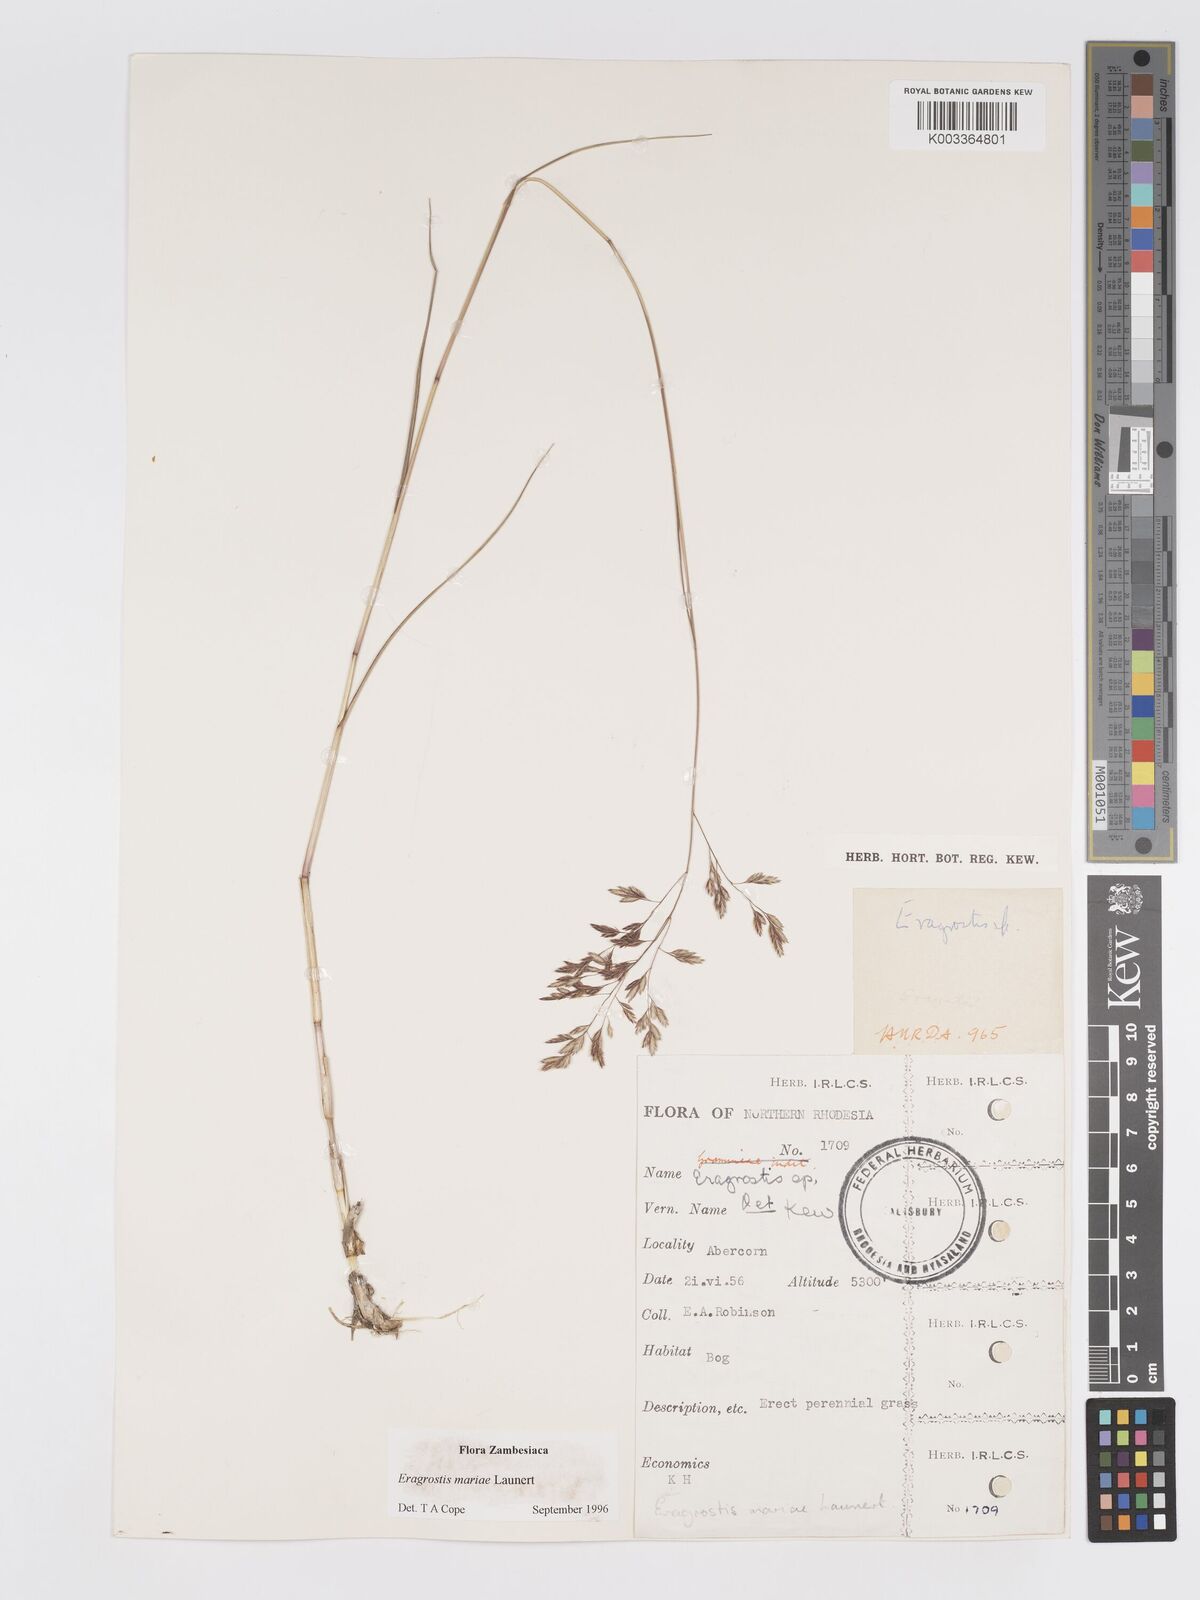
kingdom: Plantae
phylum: Tracheophyta
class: Liliopsida
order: Poales
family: Poaceae
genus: Eragrostis
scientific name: Eragrostis mariae
